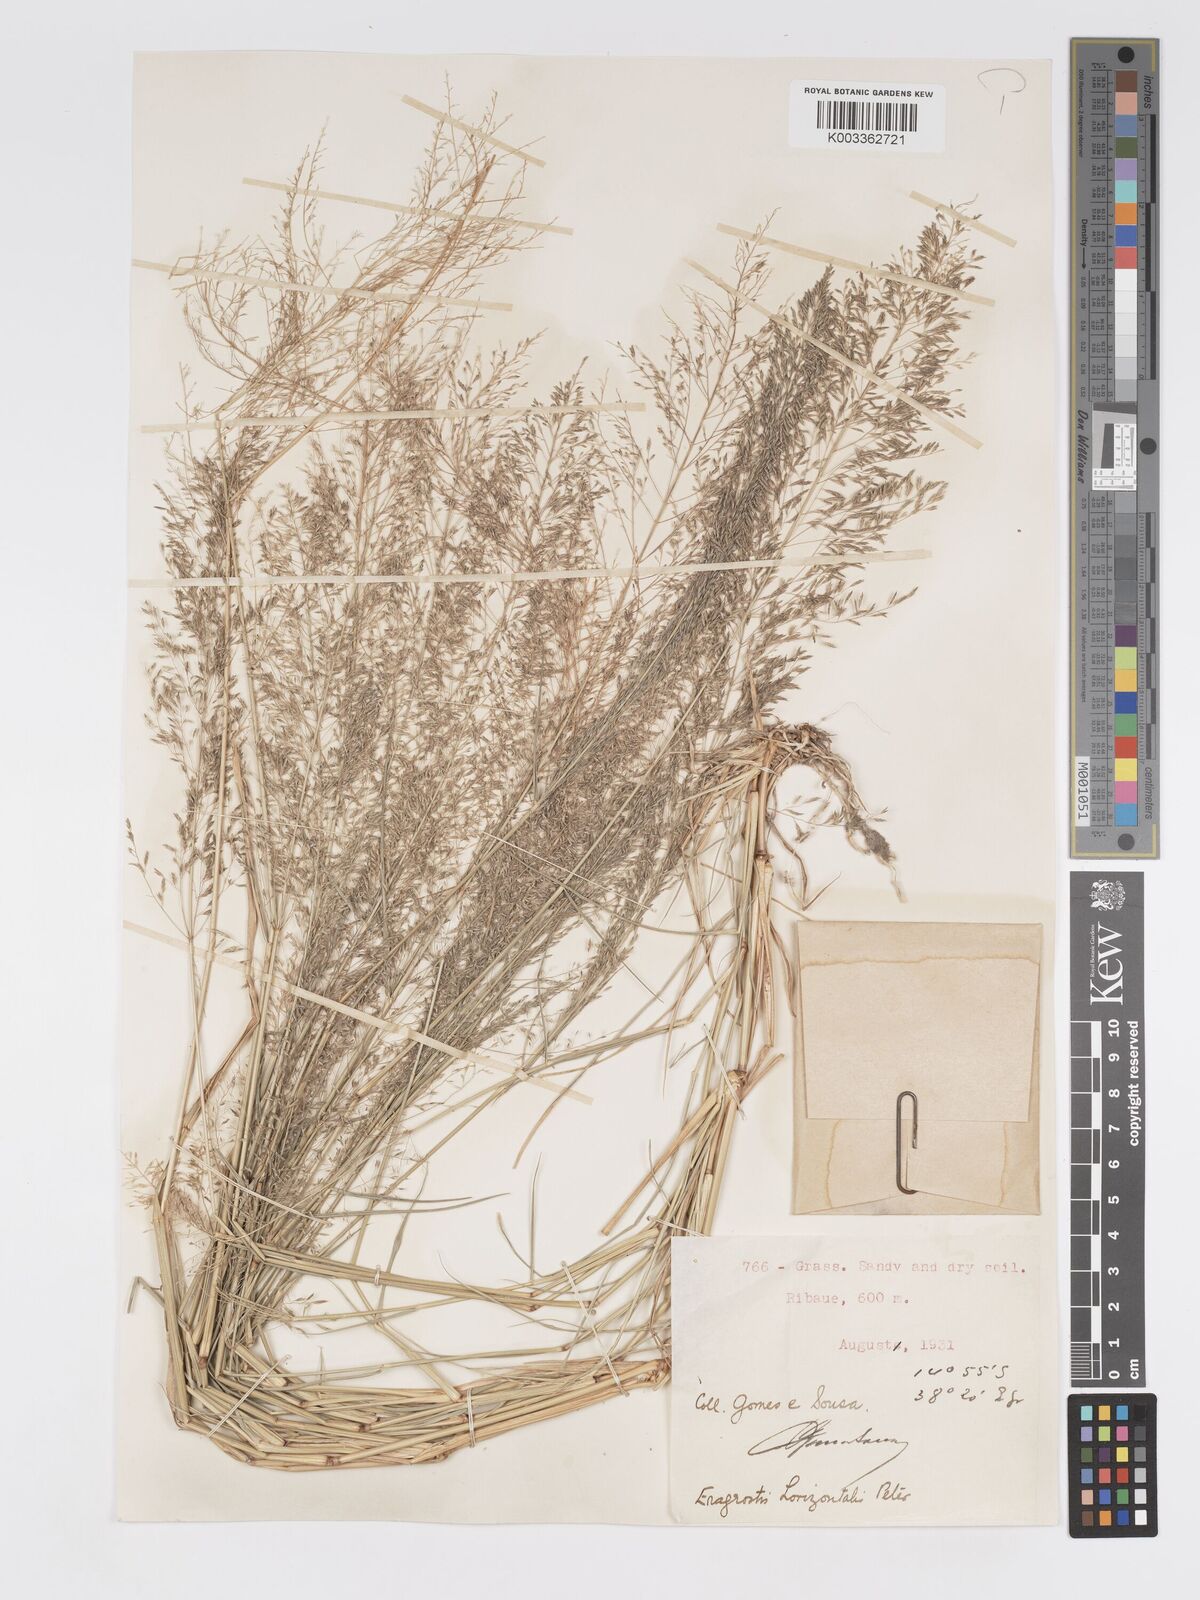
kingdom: Plantae
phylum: Tracheophyta
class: Liliopsida
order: Poales
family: Poaceae
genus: Eragrostis
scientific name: Eragrostis cylindriflora
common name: Cylinderflower lovegrass
